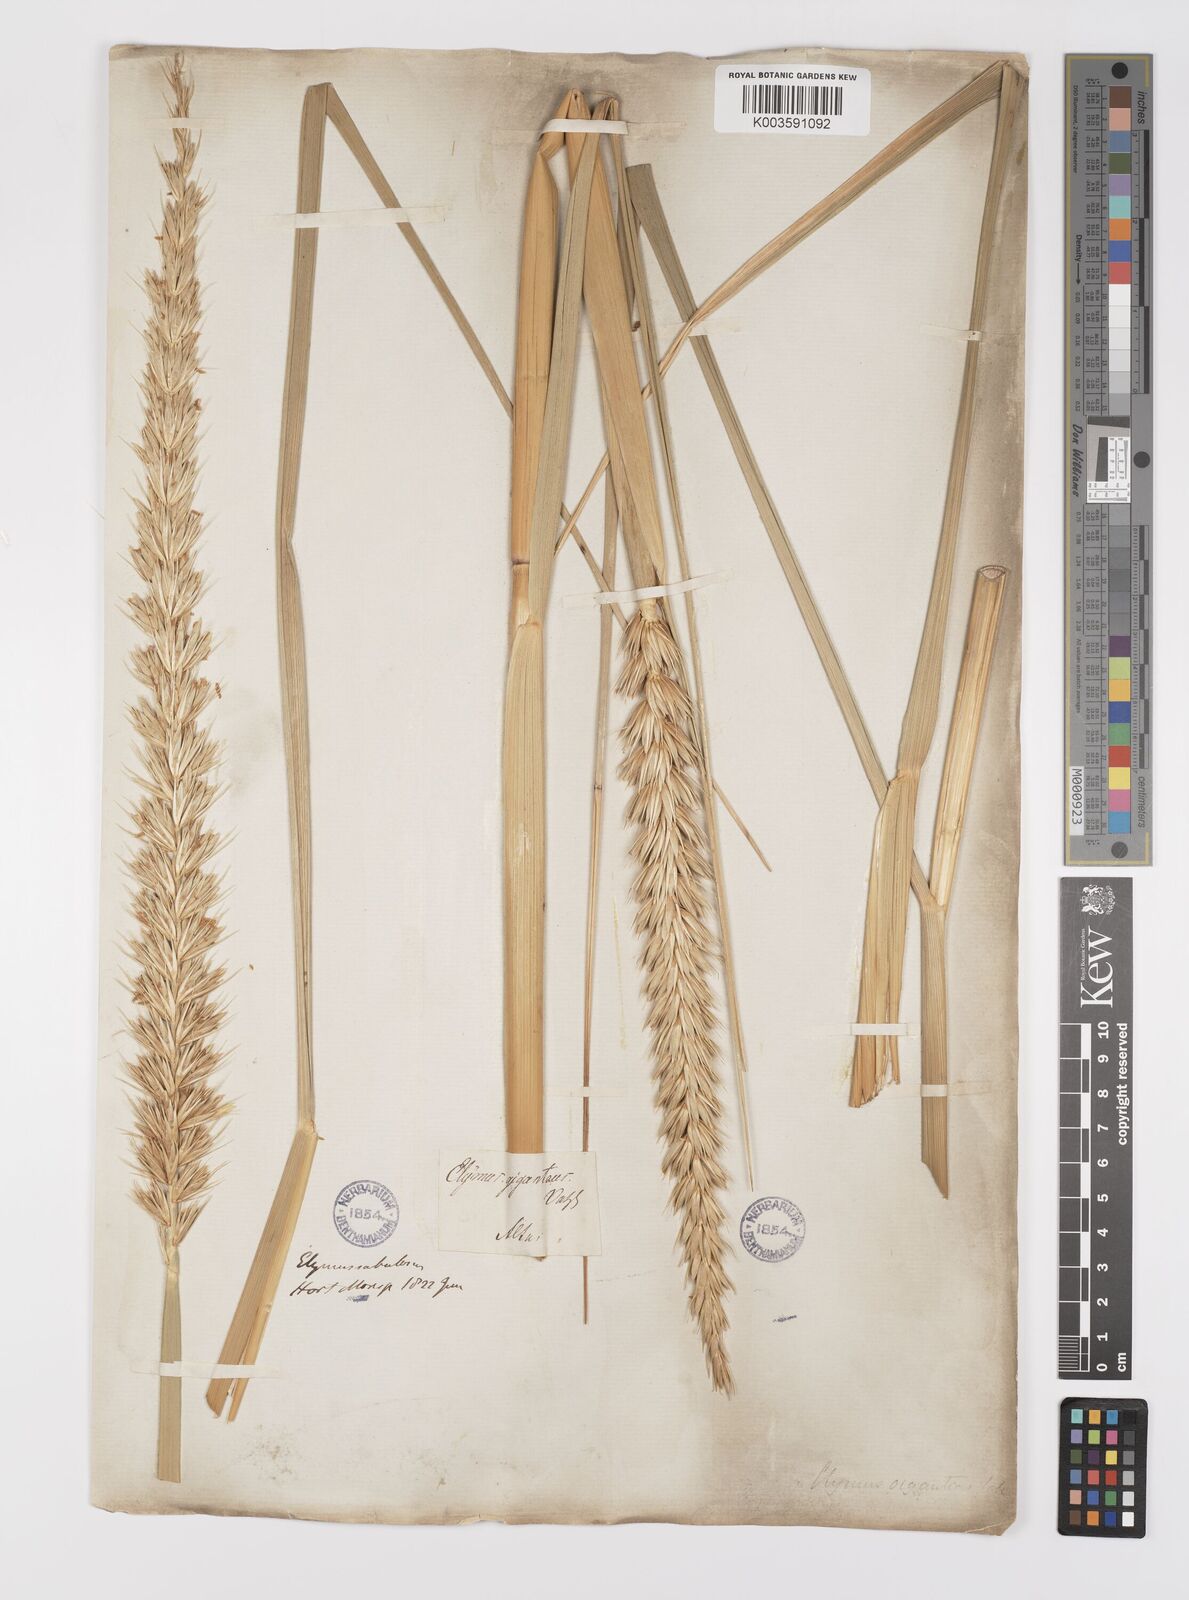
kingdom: Plantae
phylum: Tracheophyta
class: Liliopsida
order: Poales
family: Poaceae
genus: Leymus
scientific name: Leymus racemosus
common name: Mammoth wildrye
